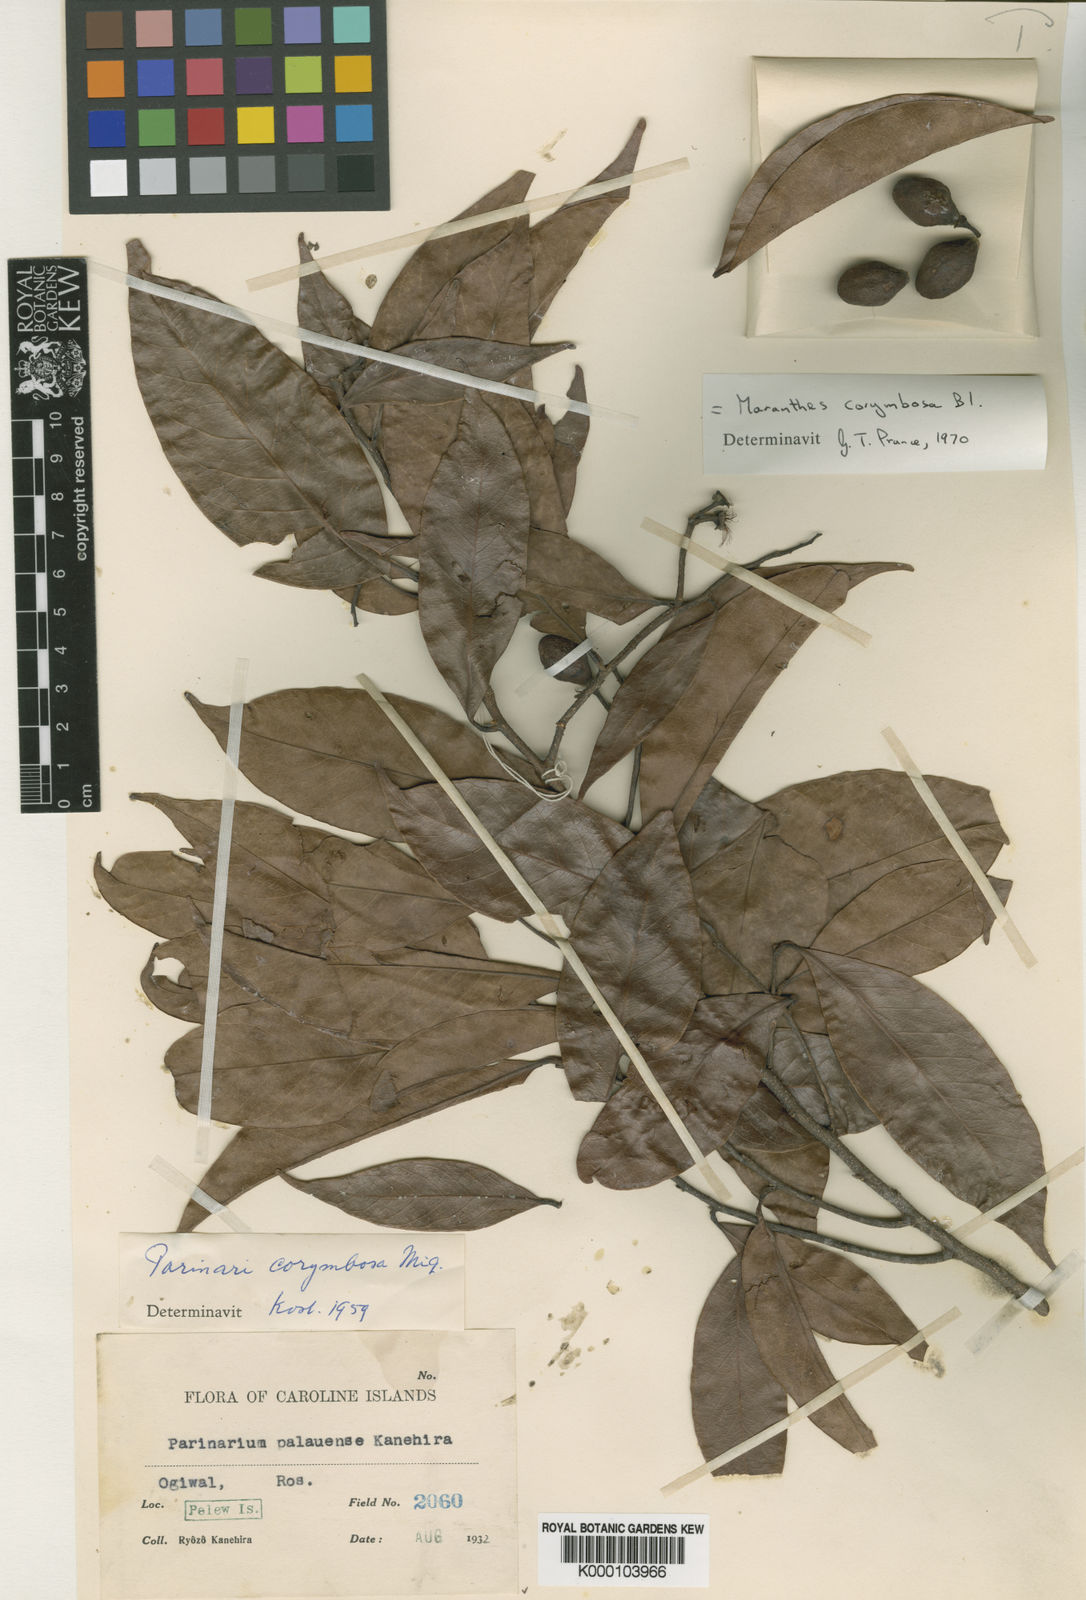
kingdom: Plantae
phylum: Tracheophyta
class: Magnoliopsida
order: Malpighiales
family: Chrysobalanaceae
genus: Maranthes
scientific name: Maranthes corymbosa
